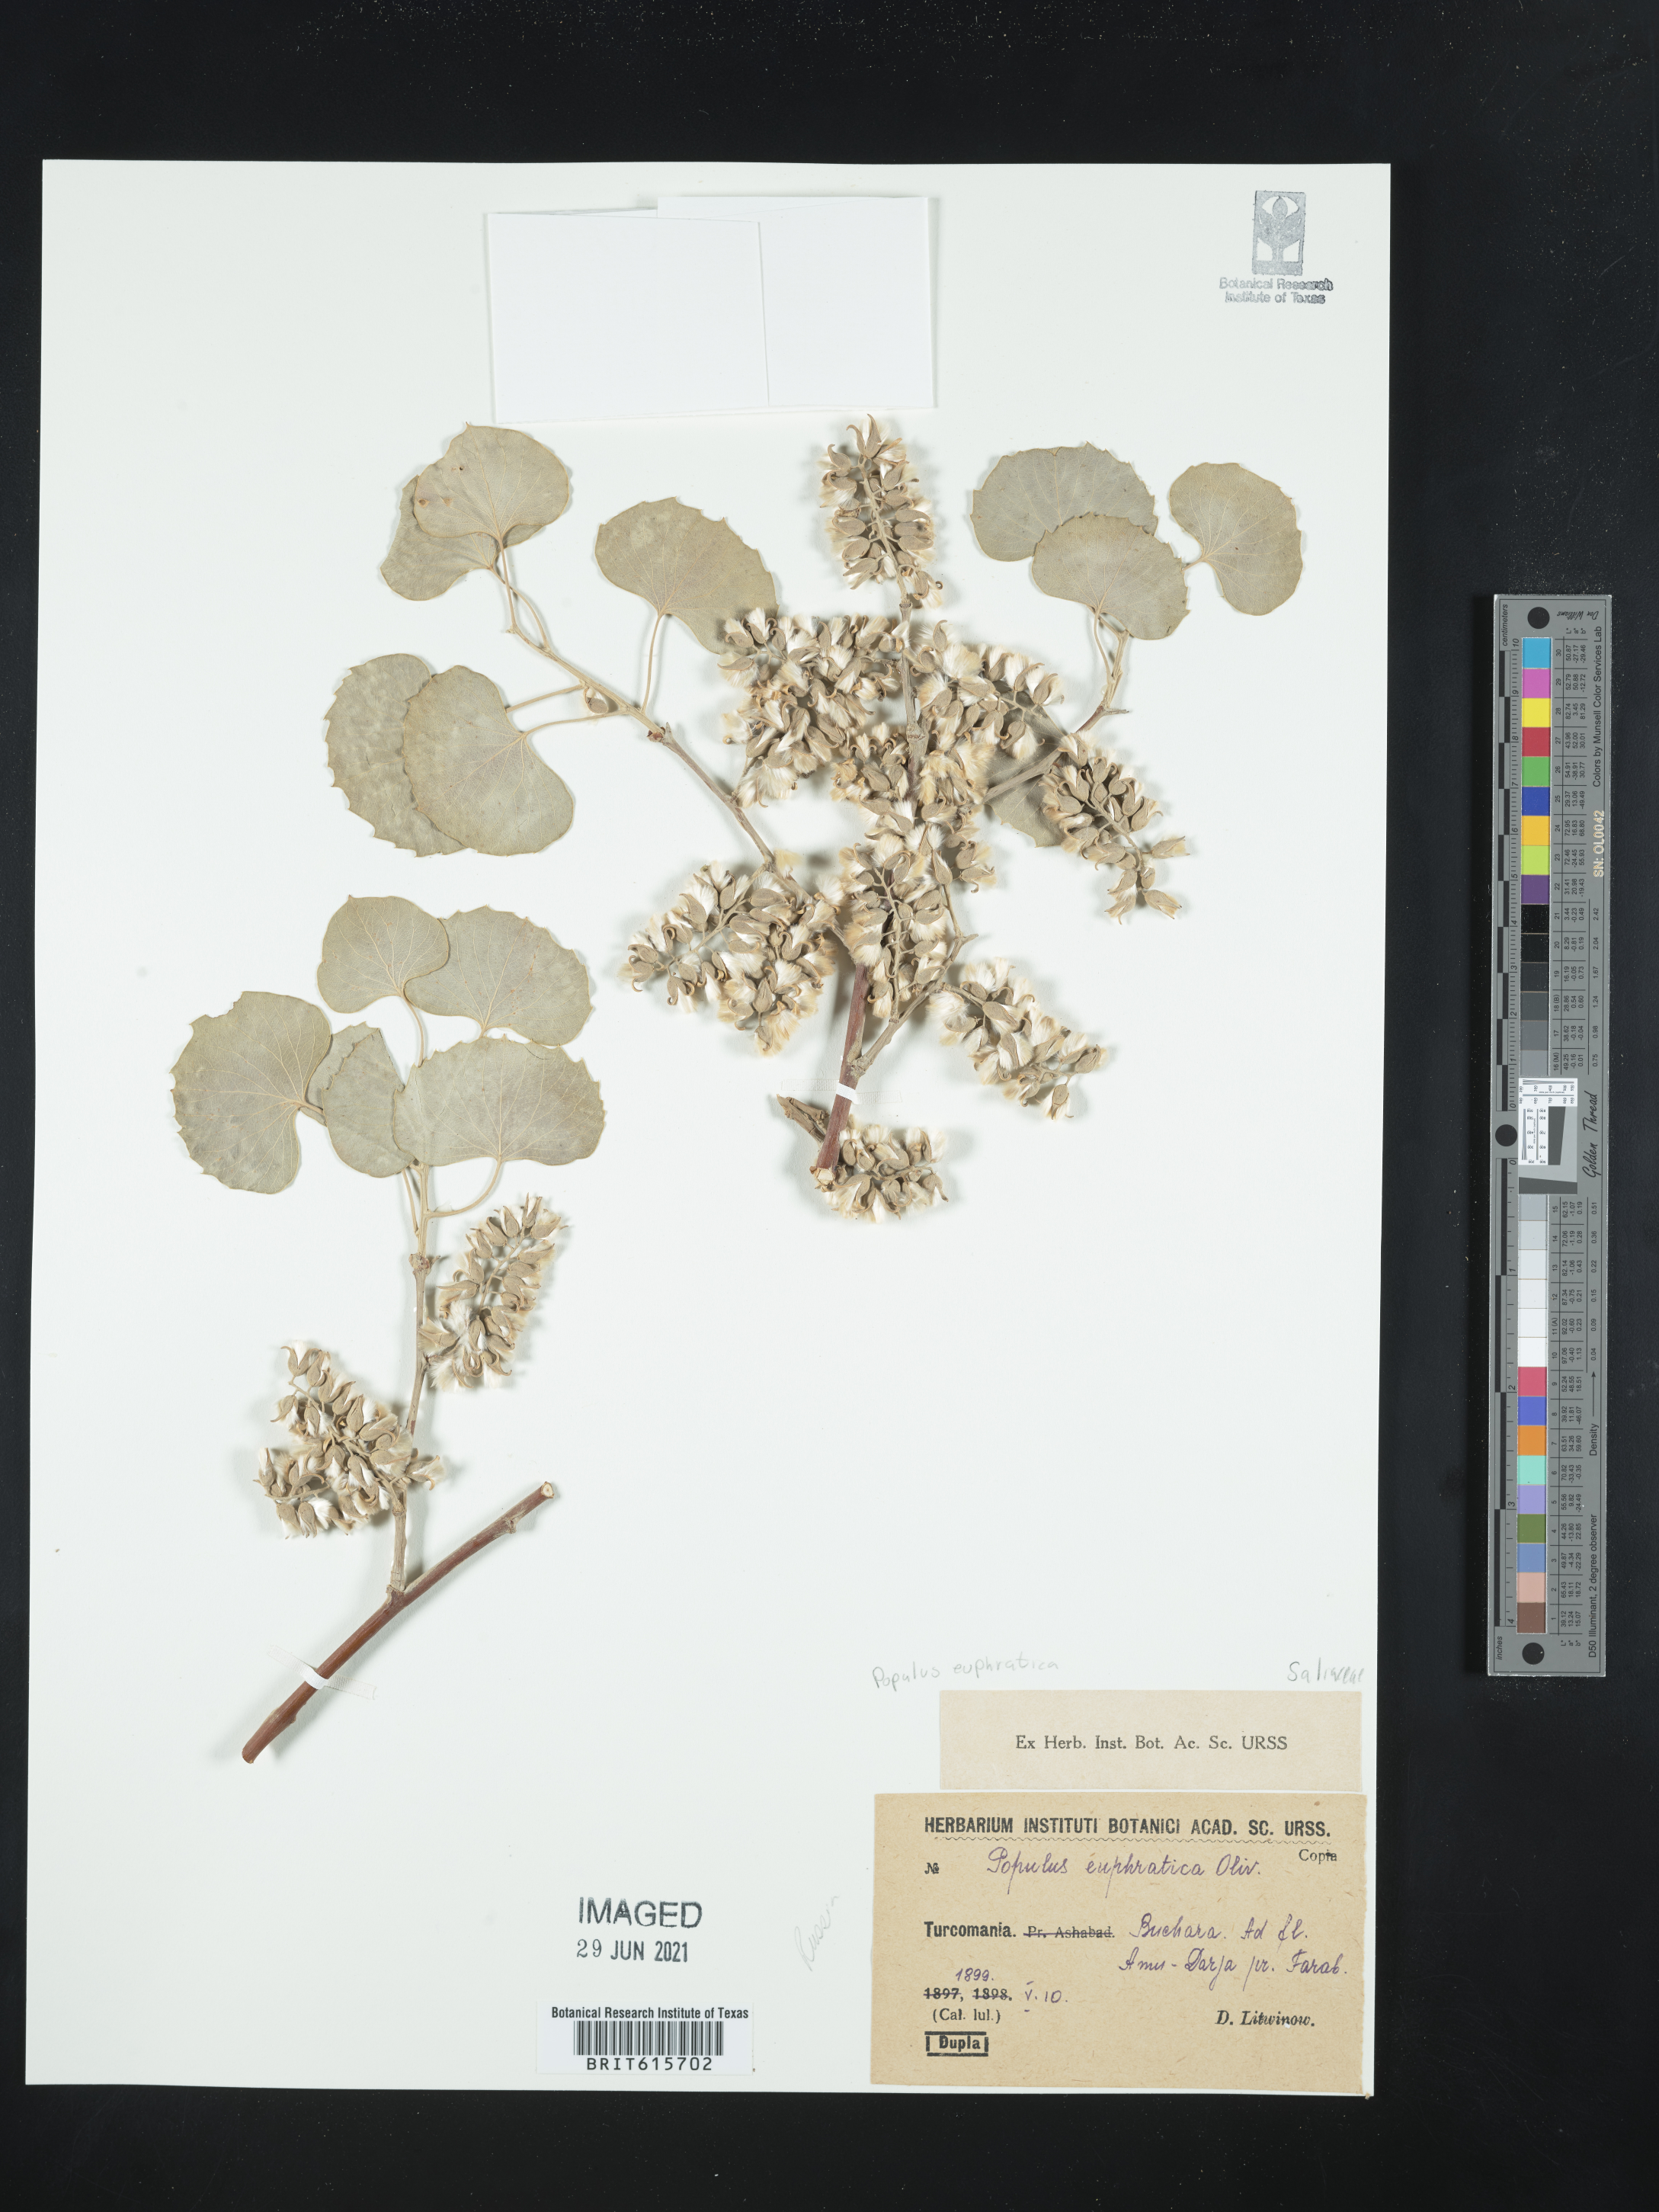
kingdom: Plantae
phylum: Tracheophyta
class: Magnoliopsida
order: Malpighiales
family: Salicaceae
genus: Populus
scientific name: Populus euphratica
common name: Euphrates poplar
